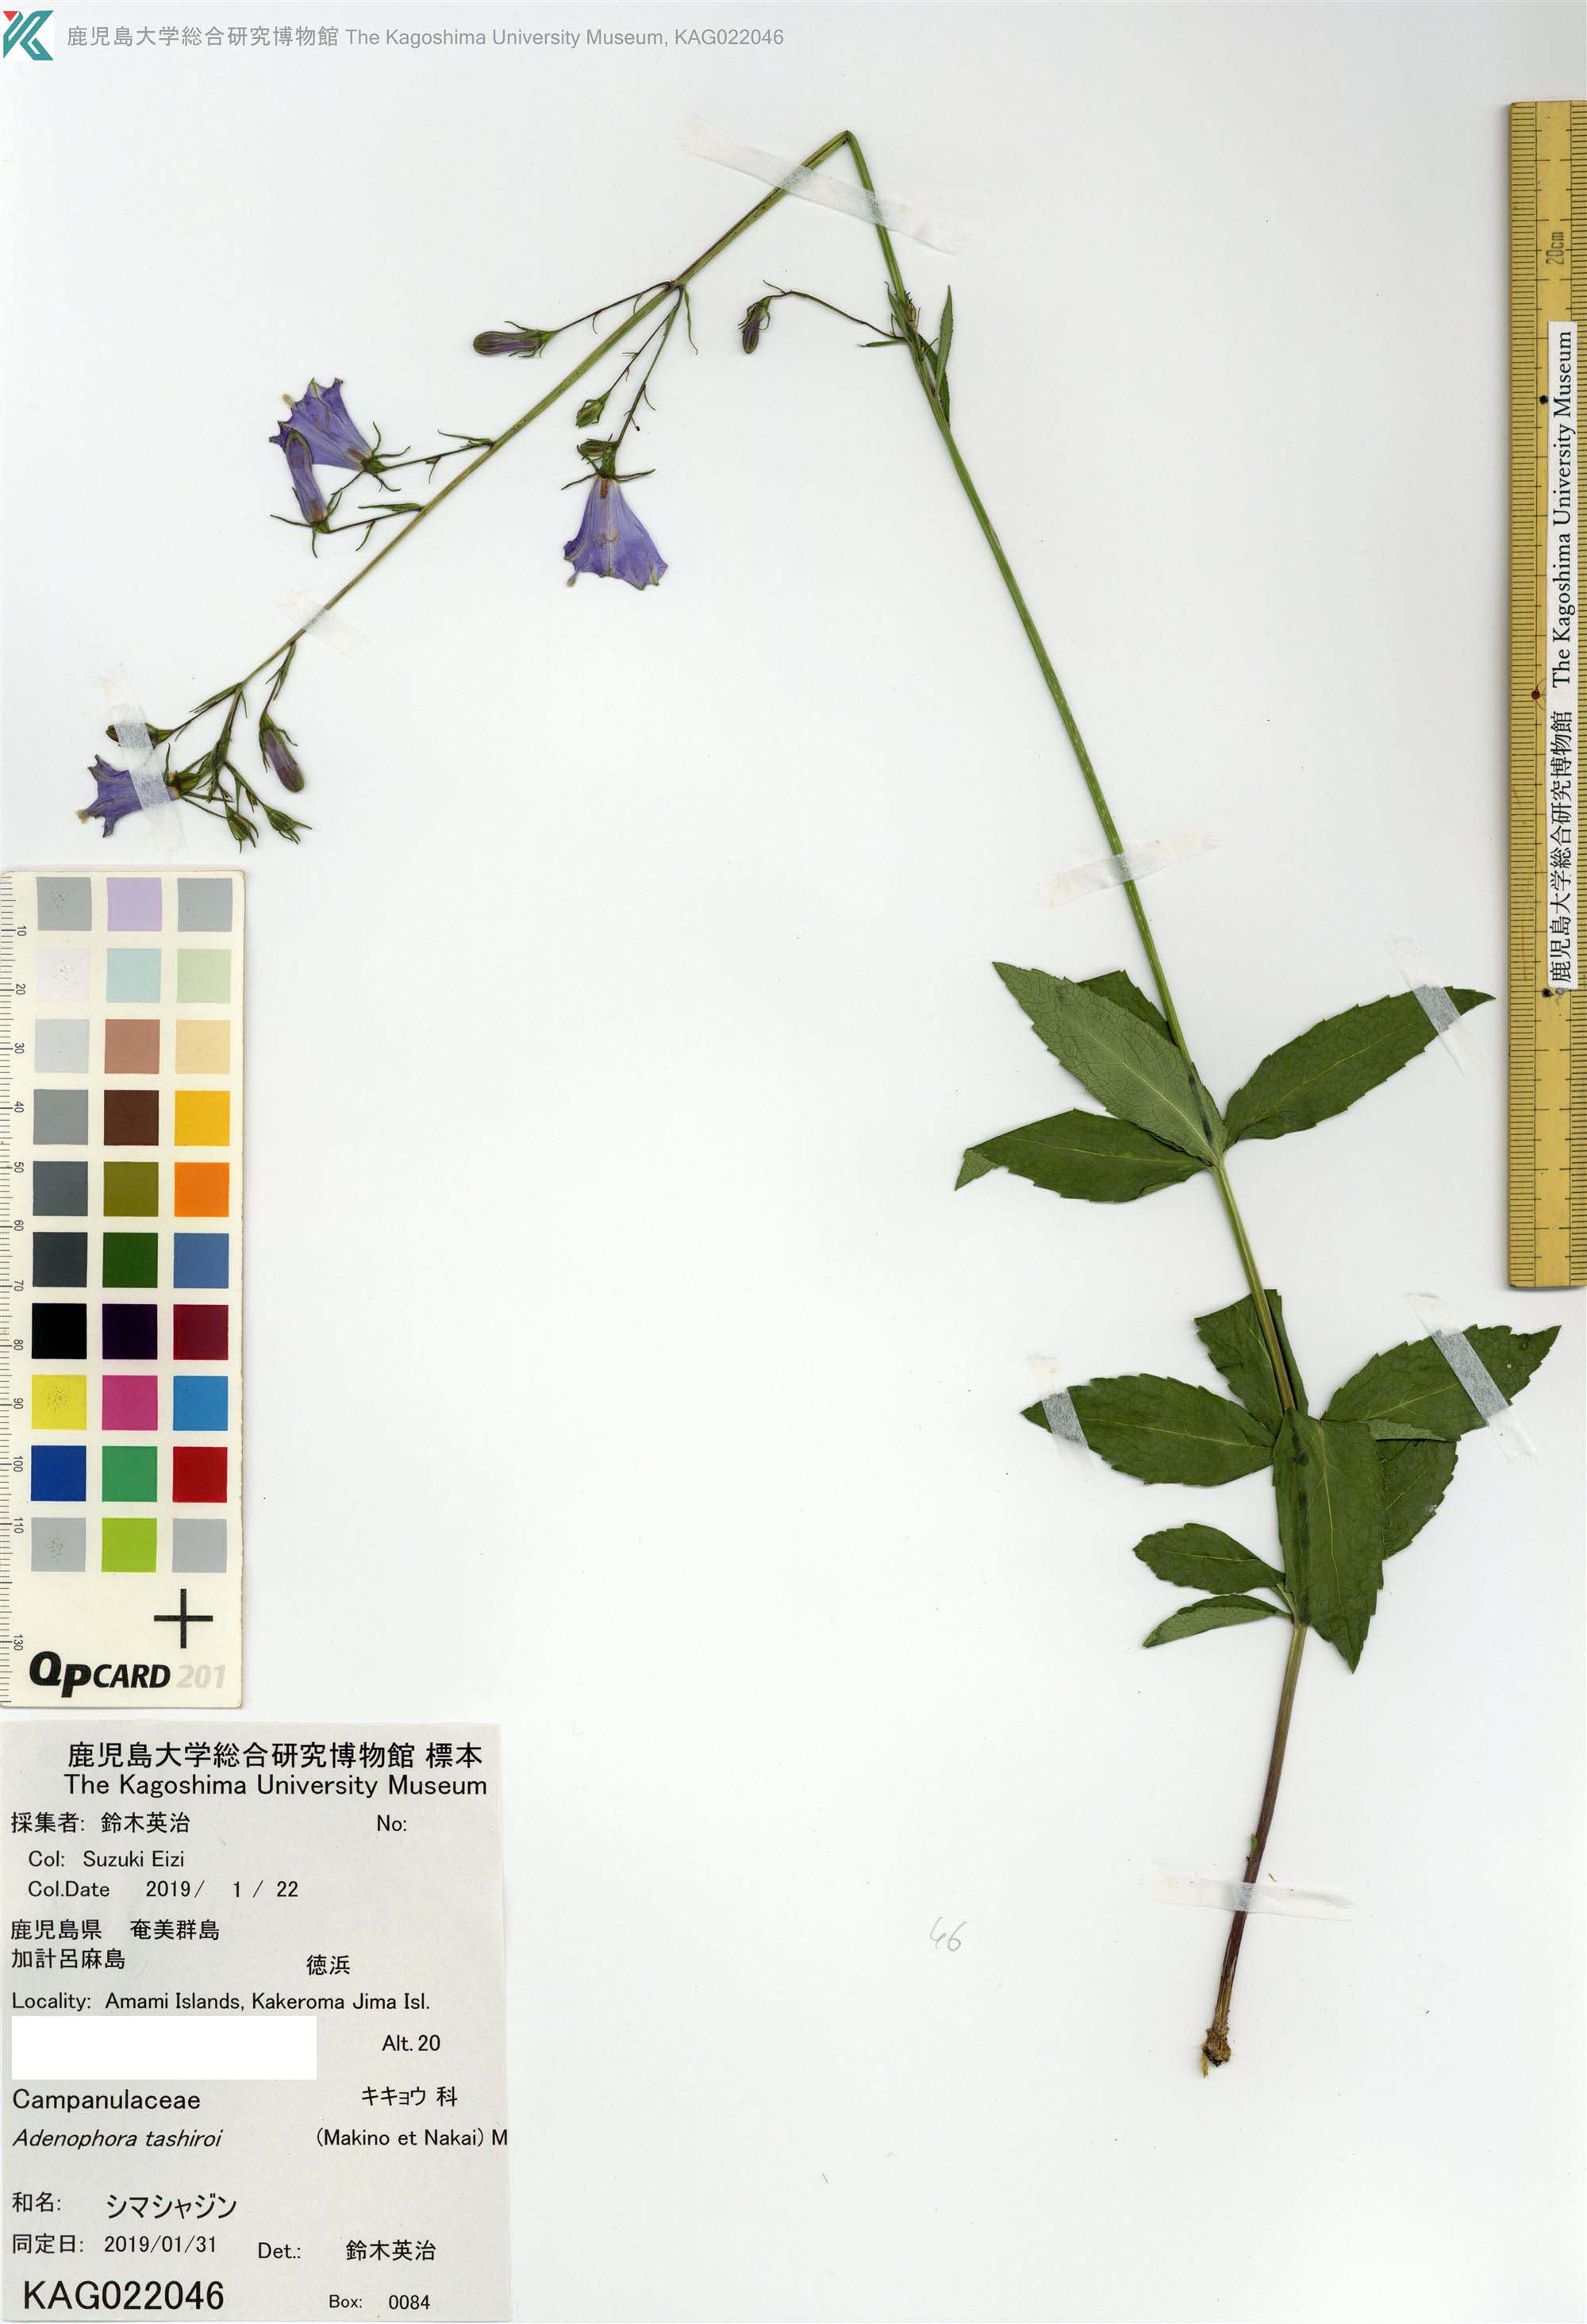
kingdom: Plantae
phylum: Tracheophyta
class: Magnoliopsida
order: Asterales
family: Campanulaceae
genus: Adenophora
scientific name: Adenophora triphylla
